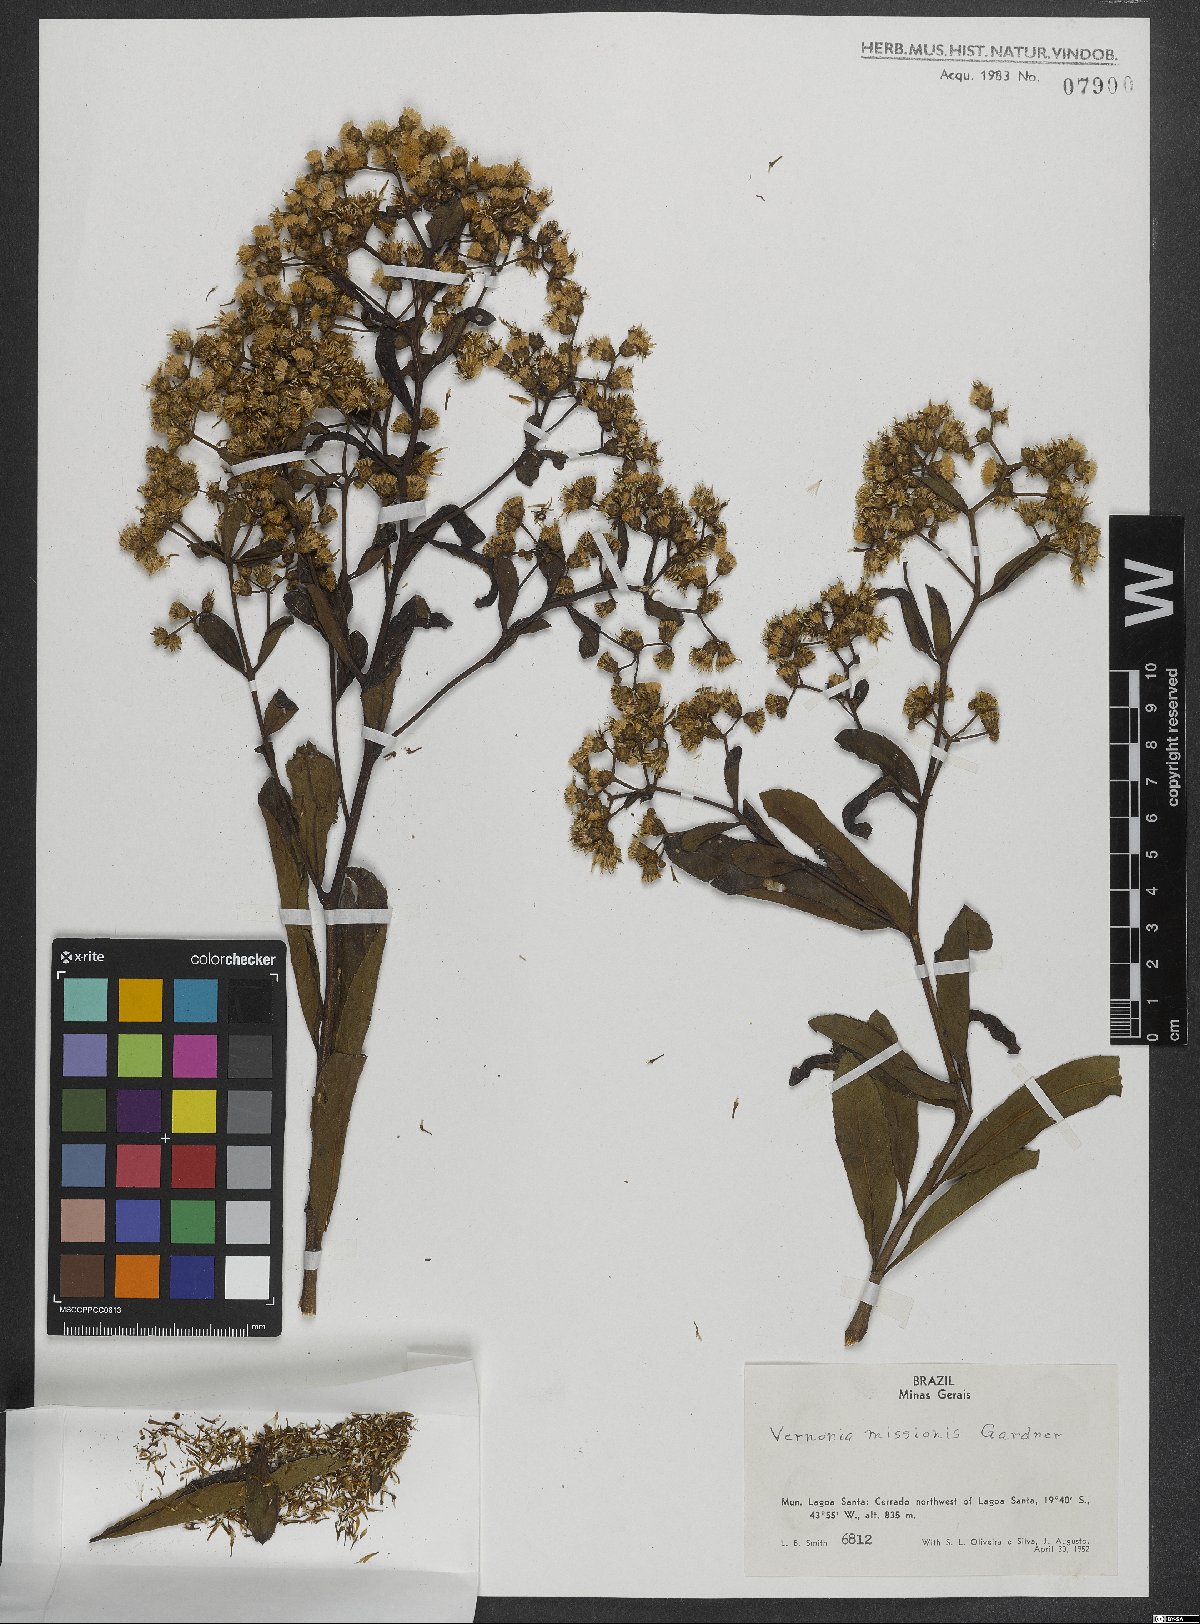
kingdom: Plantae
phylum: Tracheophyta
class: Magnoliopsida
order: Asterales
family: Asteraceae
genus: Vernonanthura
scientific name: Vernonanthura cymosa
